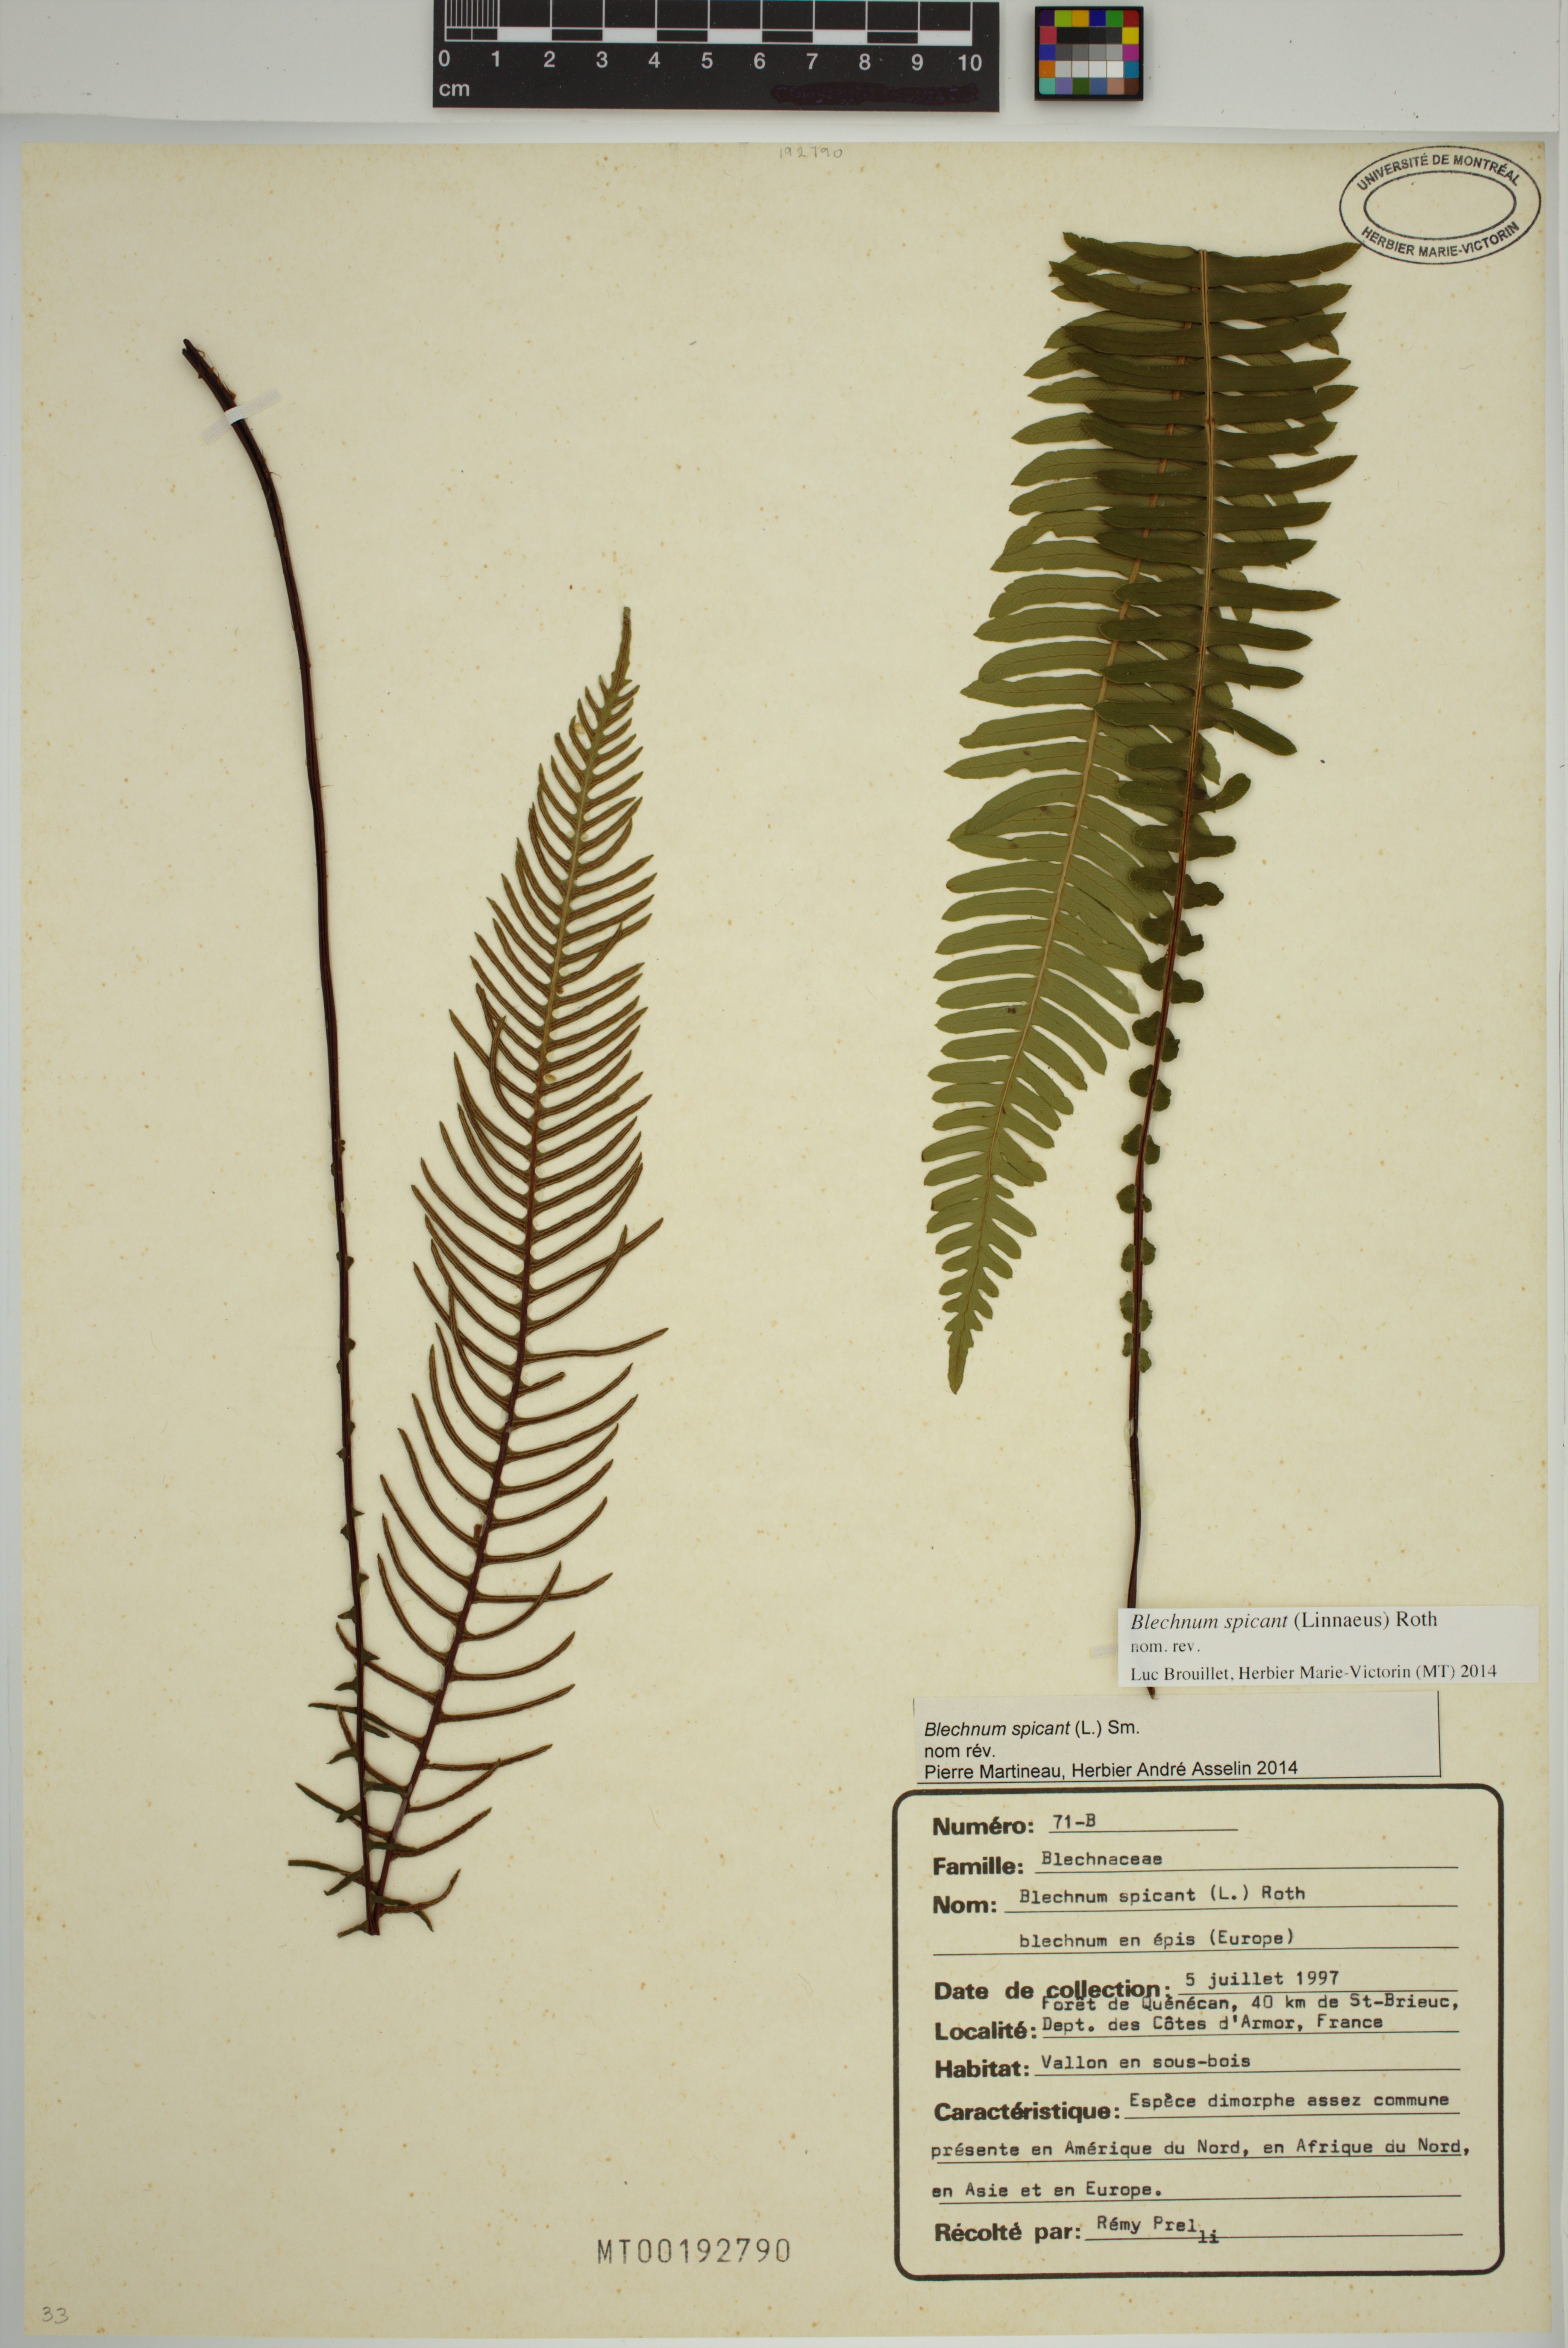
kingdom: Plantae
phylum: Tracheophyta
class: Polypodiopsida
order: Polypodiales
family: Blechnaceae
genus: Struthiopteris
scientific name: Struthiopteris spicant
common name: Deer fern
